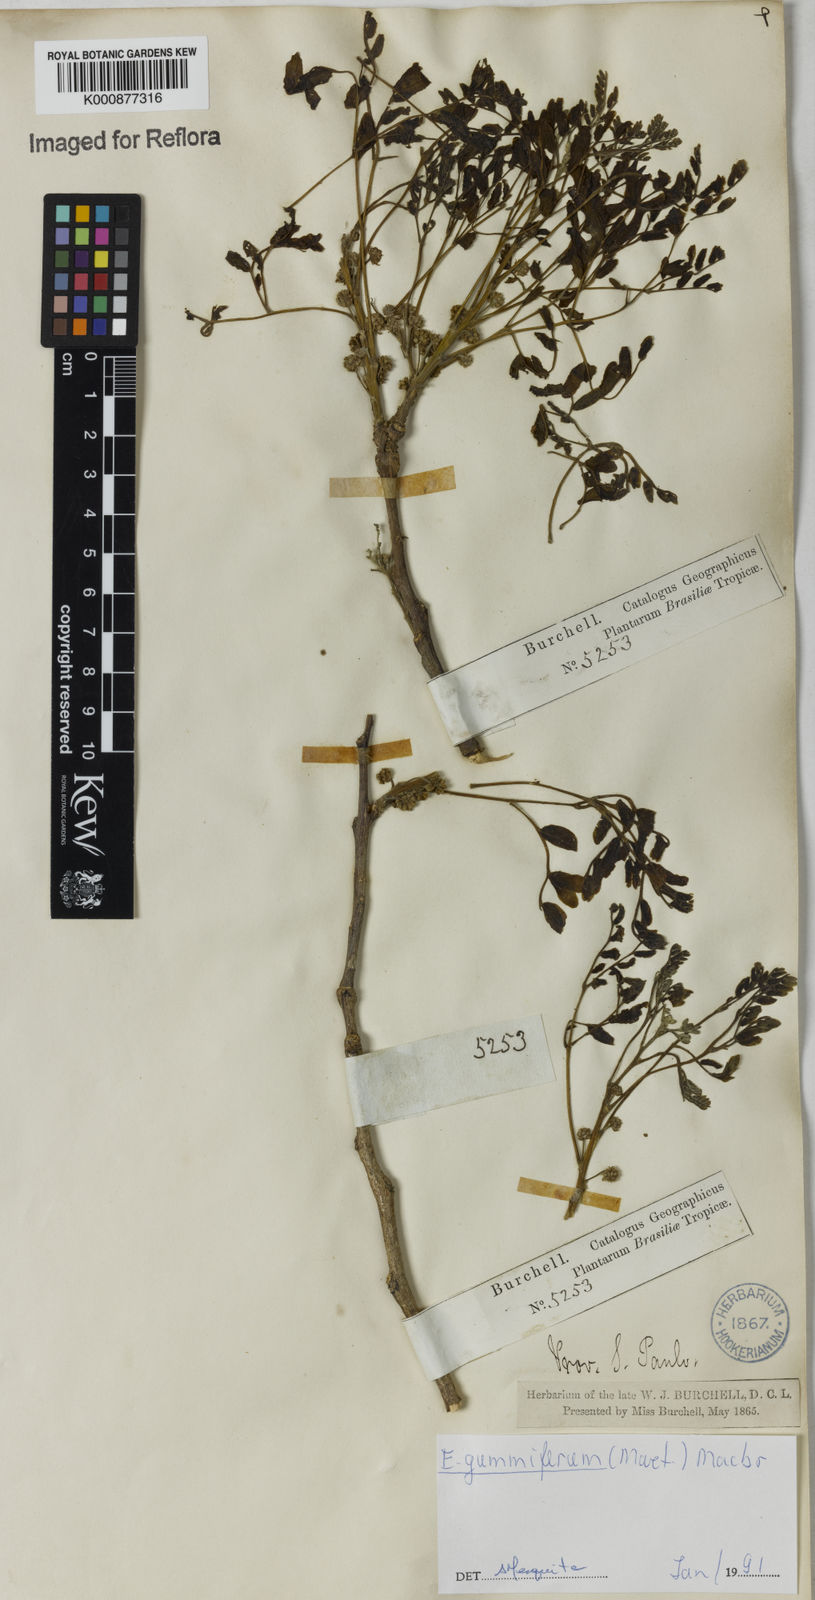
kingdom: Plantae
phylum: Tracheophyta
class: Magnoliopsida
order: Fabales
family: Fabaceae
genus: Enterolobium
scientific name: Enterolobium gummiferum
